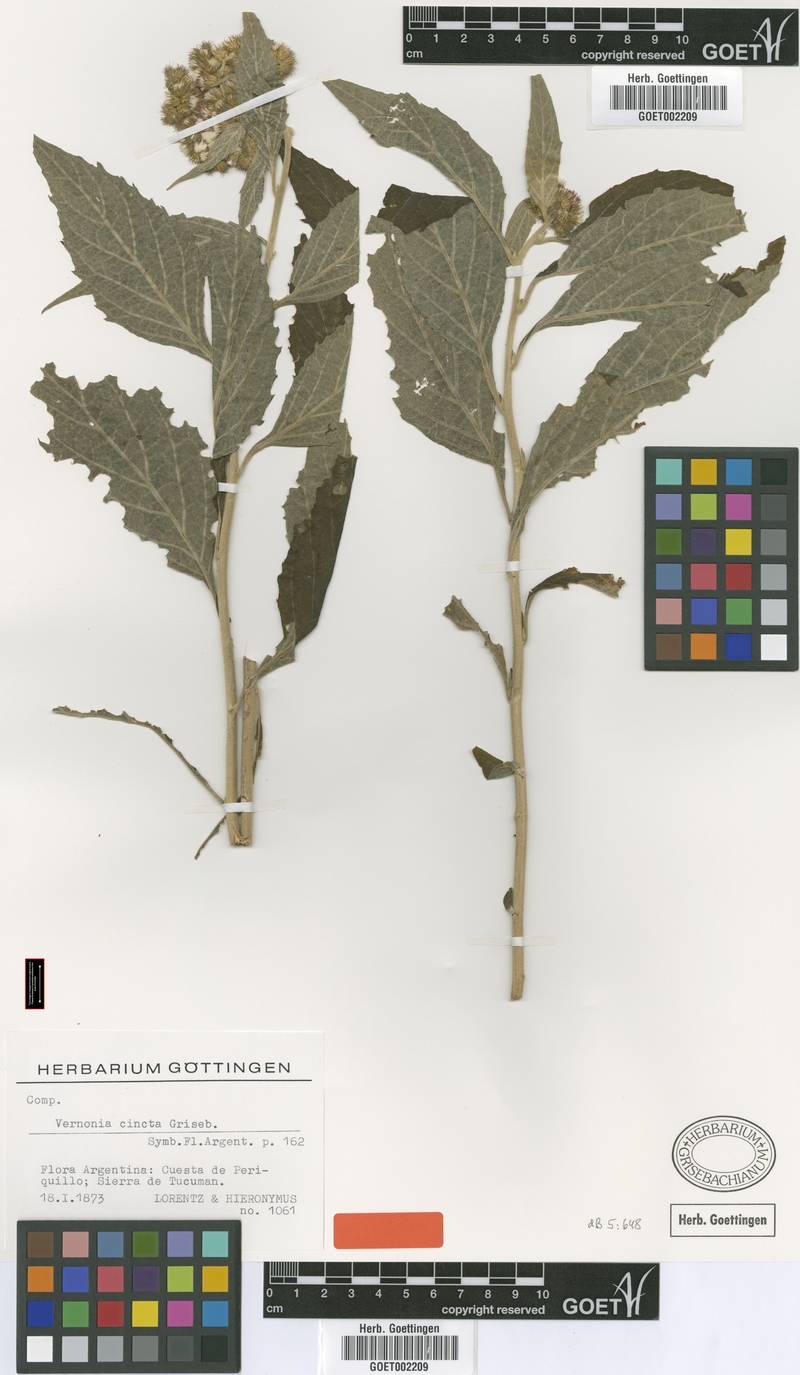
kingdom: Plantae
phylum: Tracheophyta
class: Magnoliopsida
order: Asterales
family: Asteraceae
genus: Cyrtocymura
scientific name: Cyrtocymura cincta
